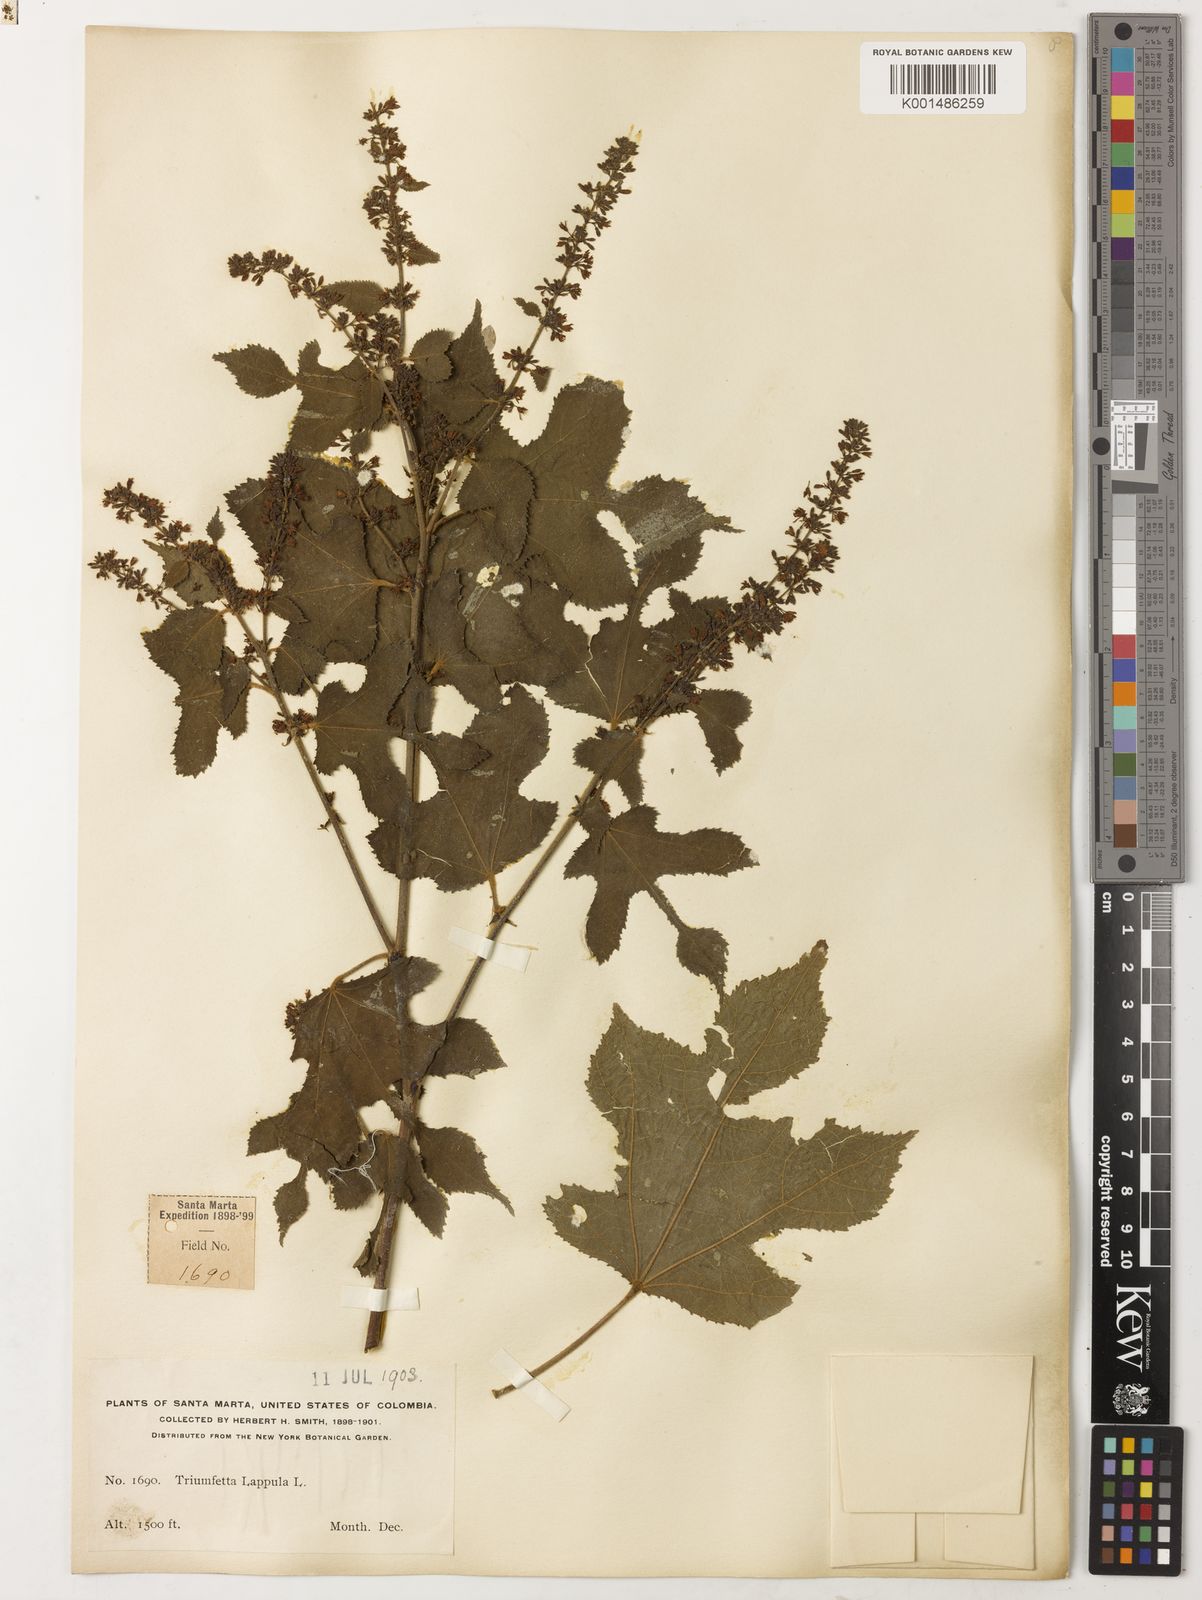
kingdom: Plantae
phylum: Tracheophyta
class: Magnoliopsida
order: Malvales
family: Malvaceae
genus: Triumfetta
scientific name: Triumfetta lappula
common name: Burbark
